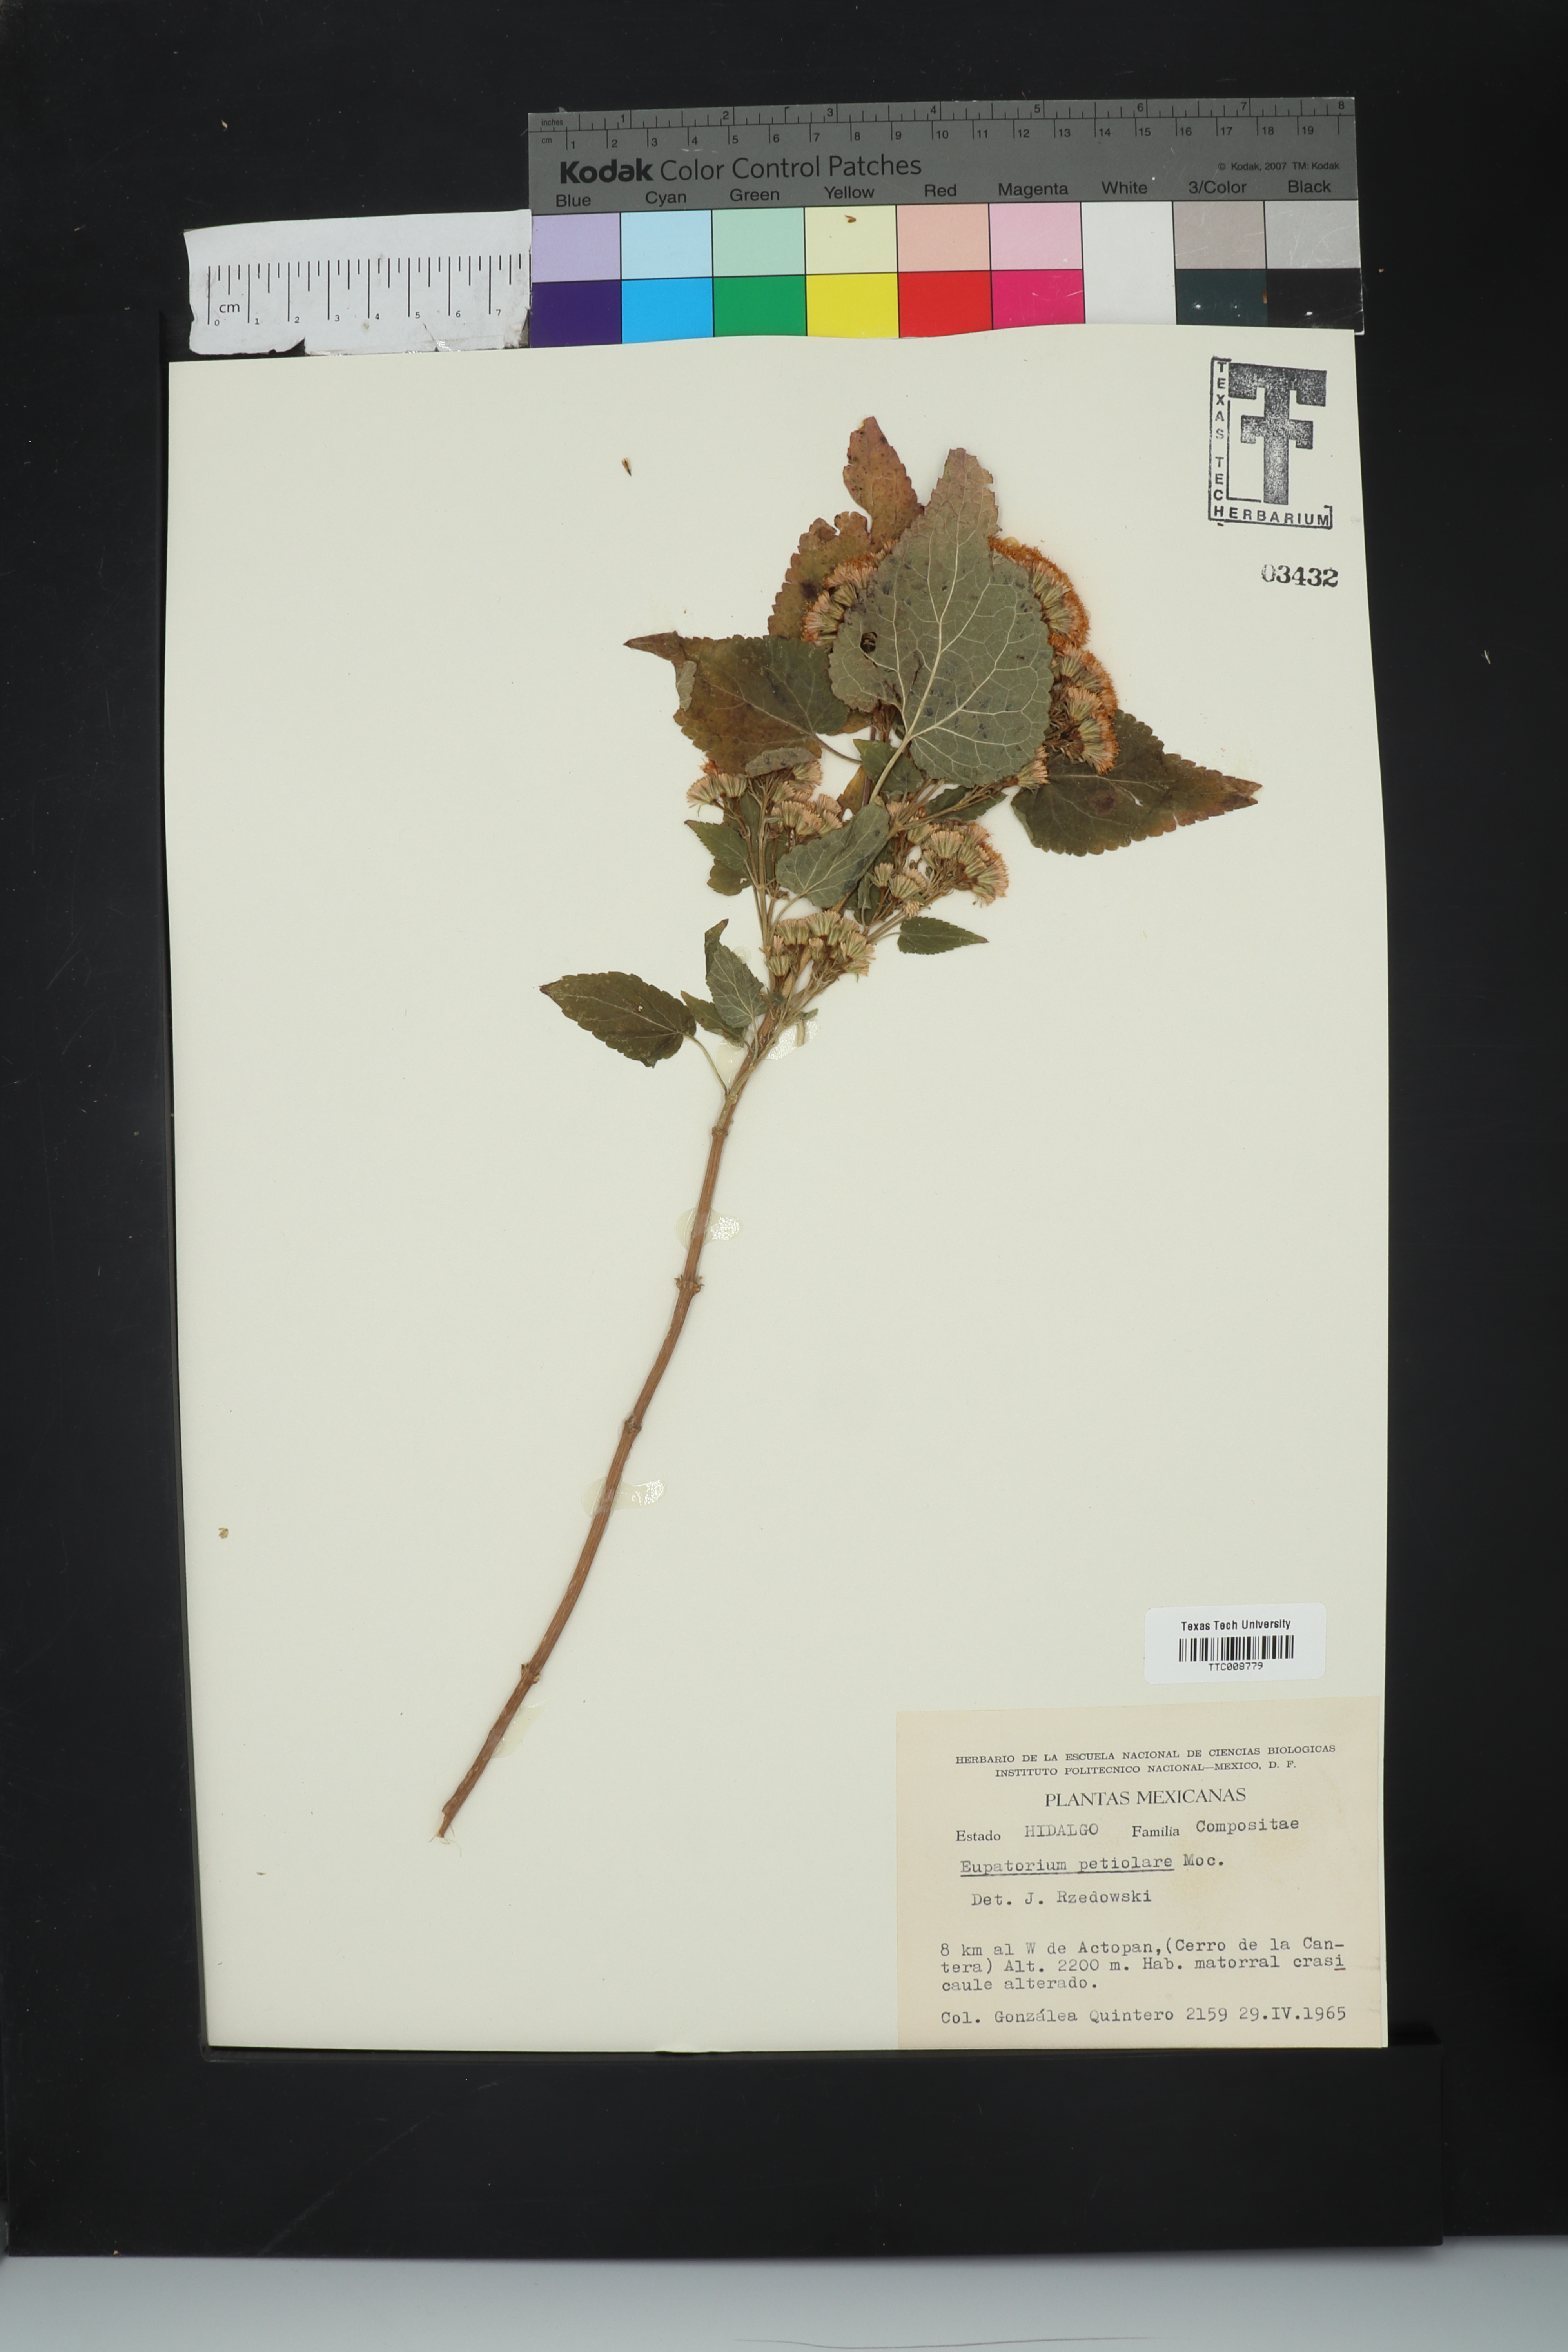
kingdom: Plantae
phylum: Tracheophyta
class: Magnoliopsida
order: Asterales
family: Asteraceae
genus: Ageratina
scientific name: Ageratina petiolaris
